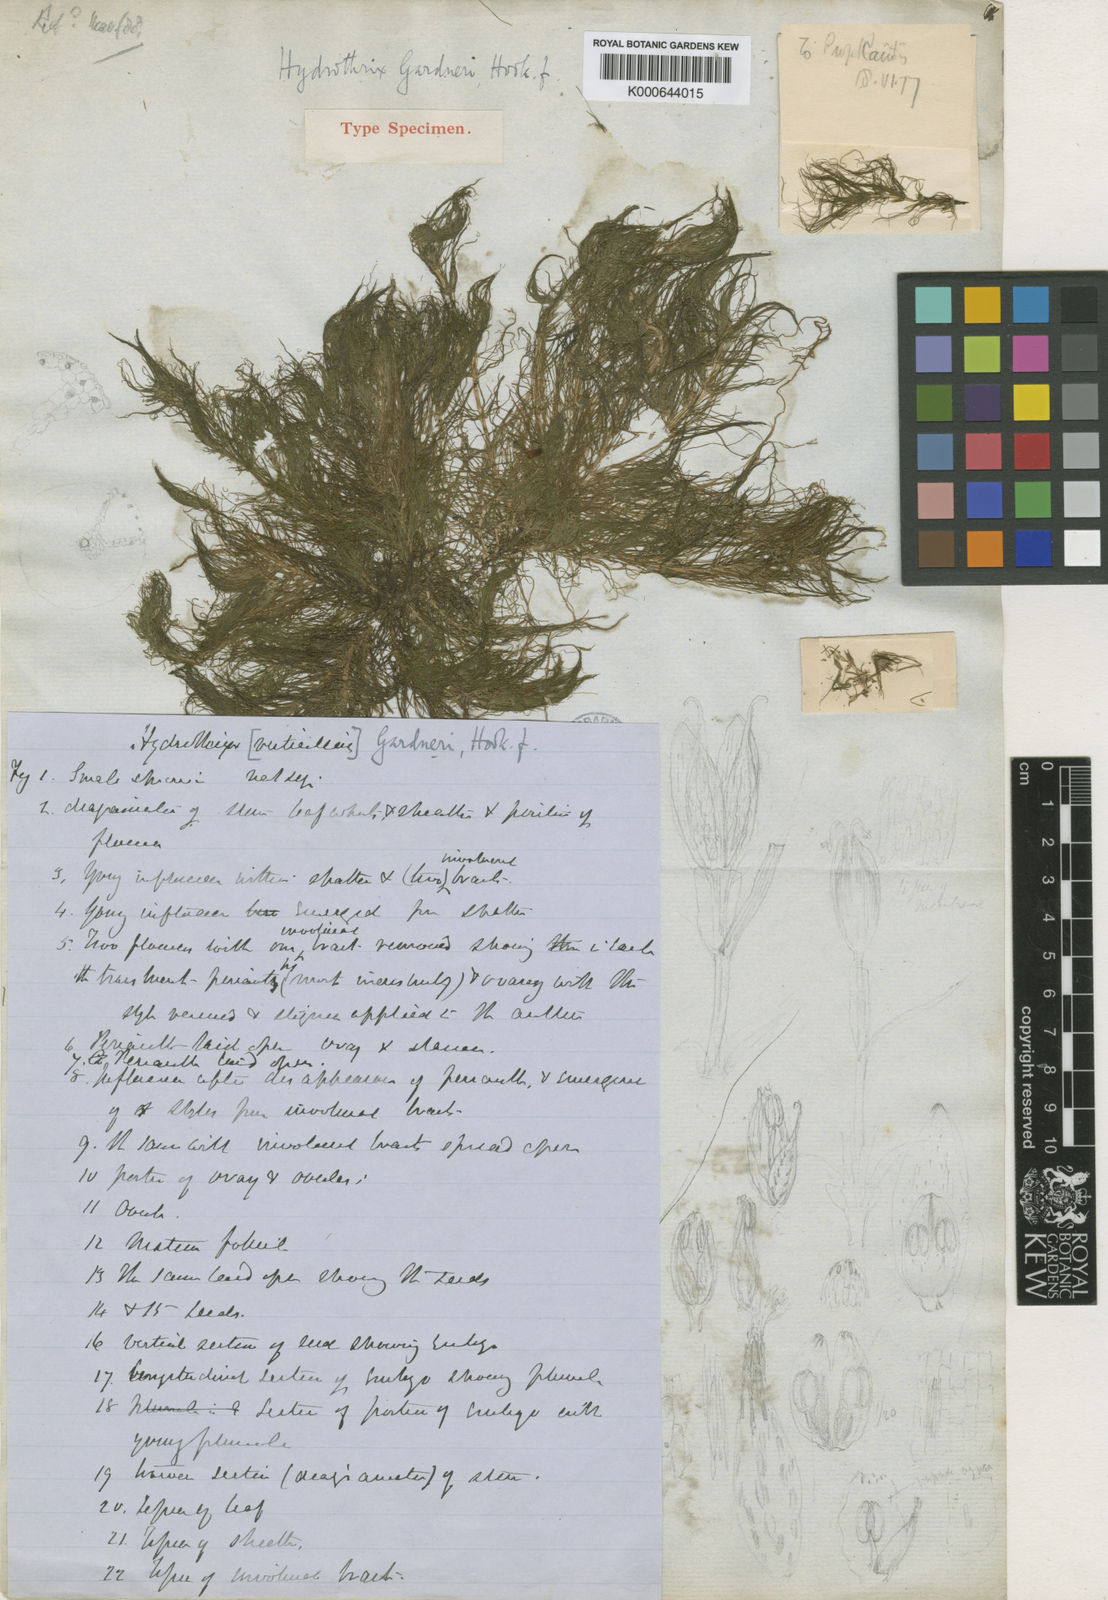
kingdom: Plantae
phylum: Tracheophyta
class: Liliopsida
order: Commelinales
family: Pontederiaceae
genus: Heteranthera
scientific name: Heteranthera gardneri
